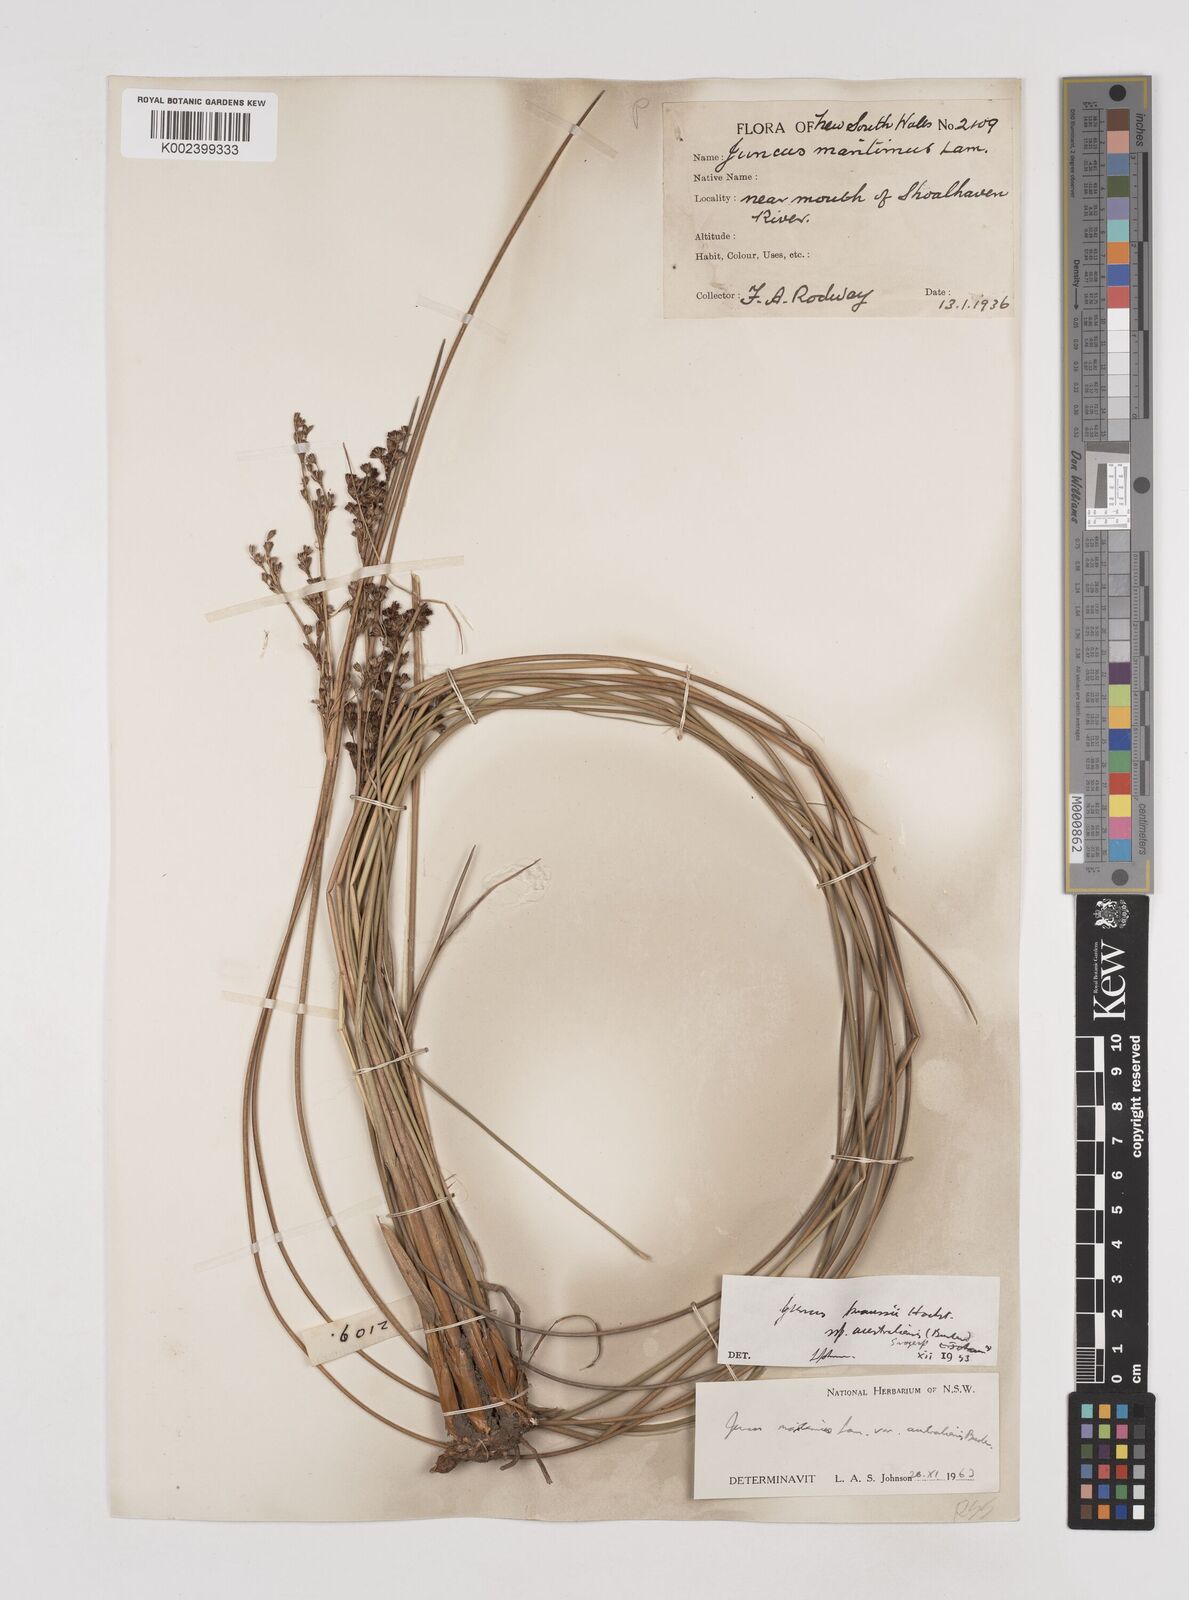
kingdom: Plantae
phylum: Tracheophyta
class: Liliopsida
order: Poales
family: Juncaceae
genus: Juncus
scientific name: Juncus kraussii
